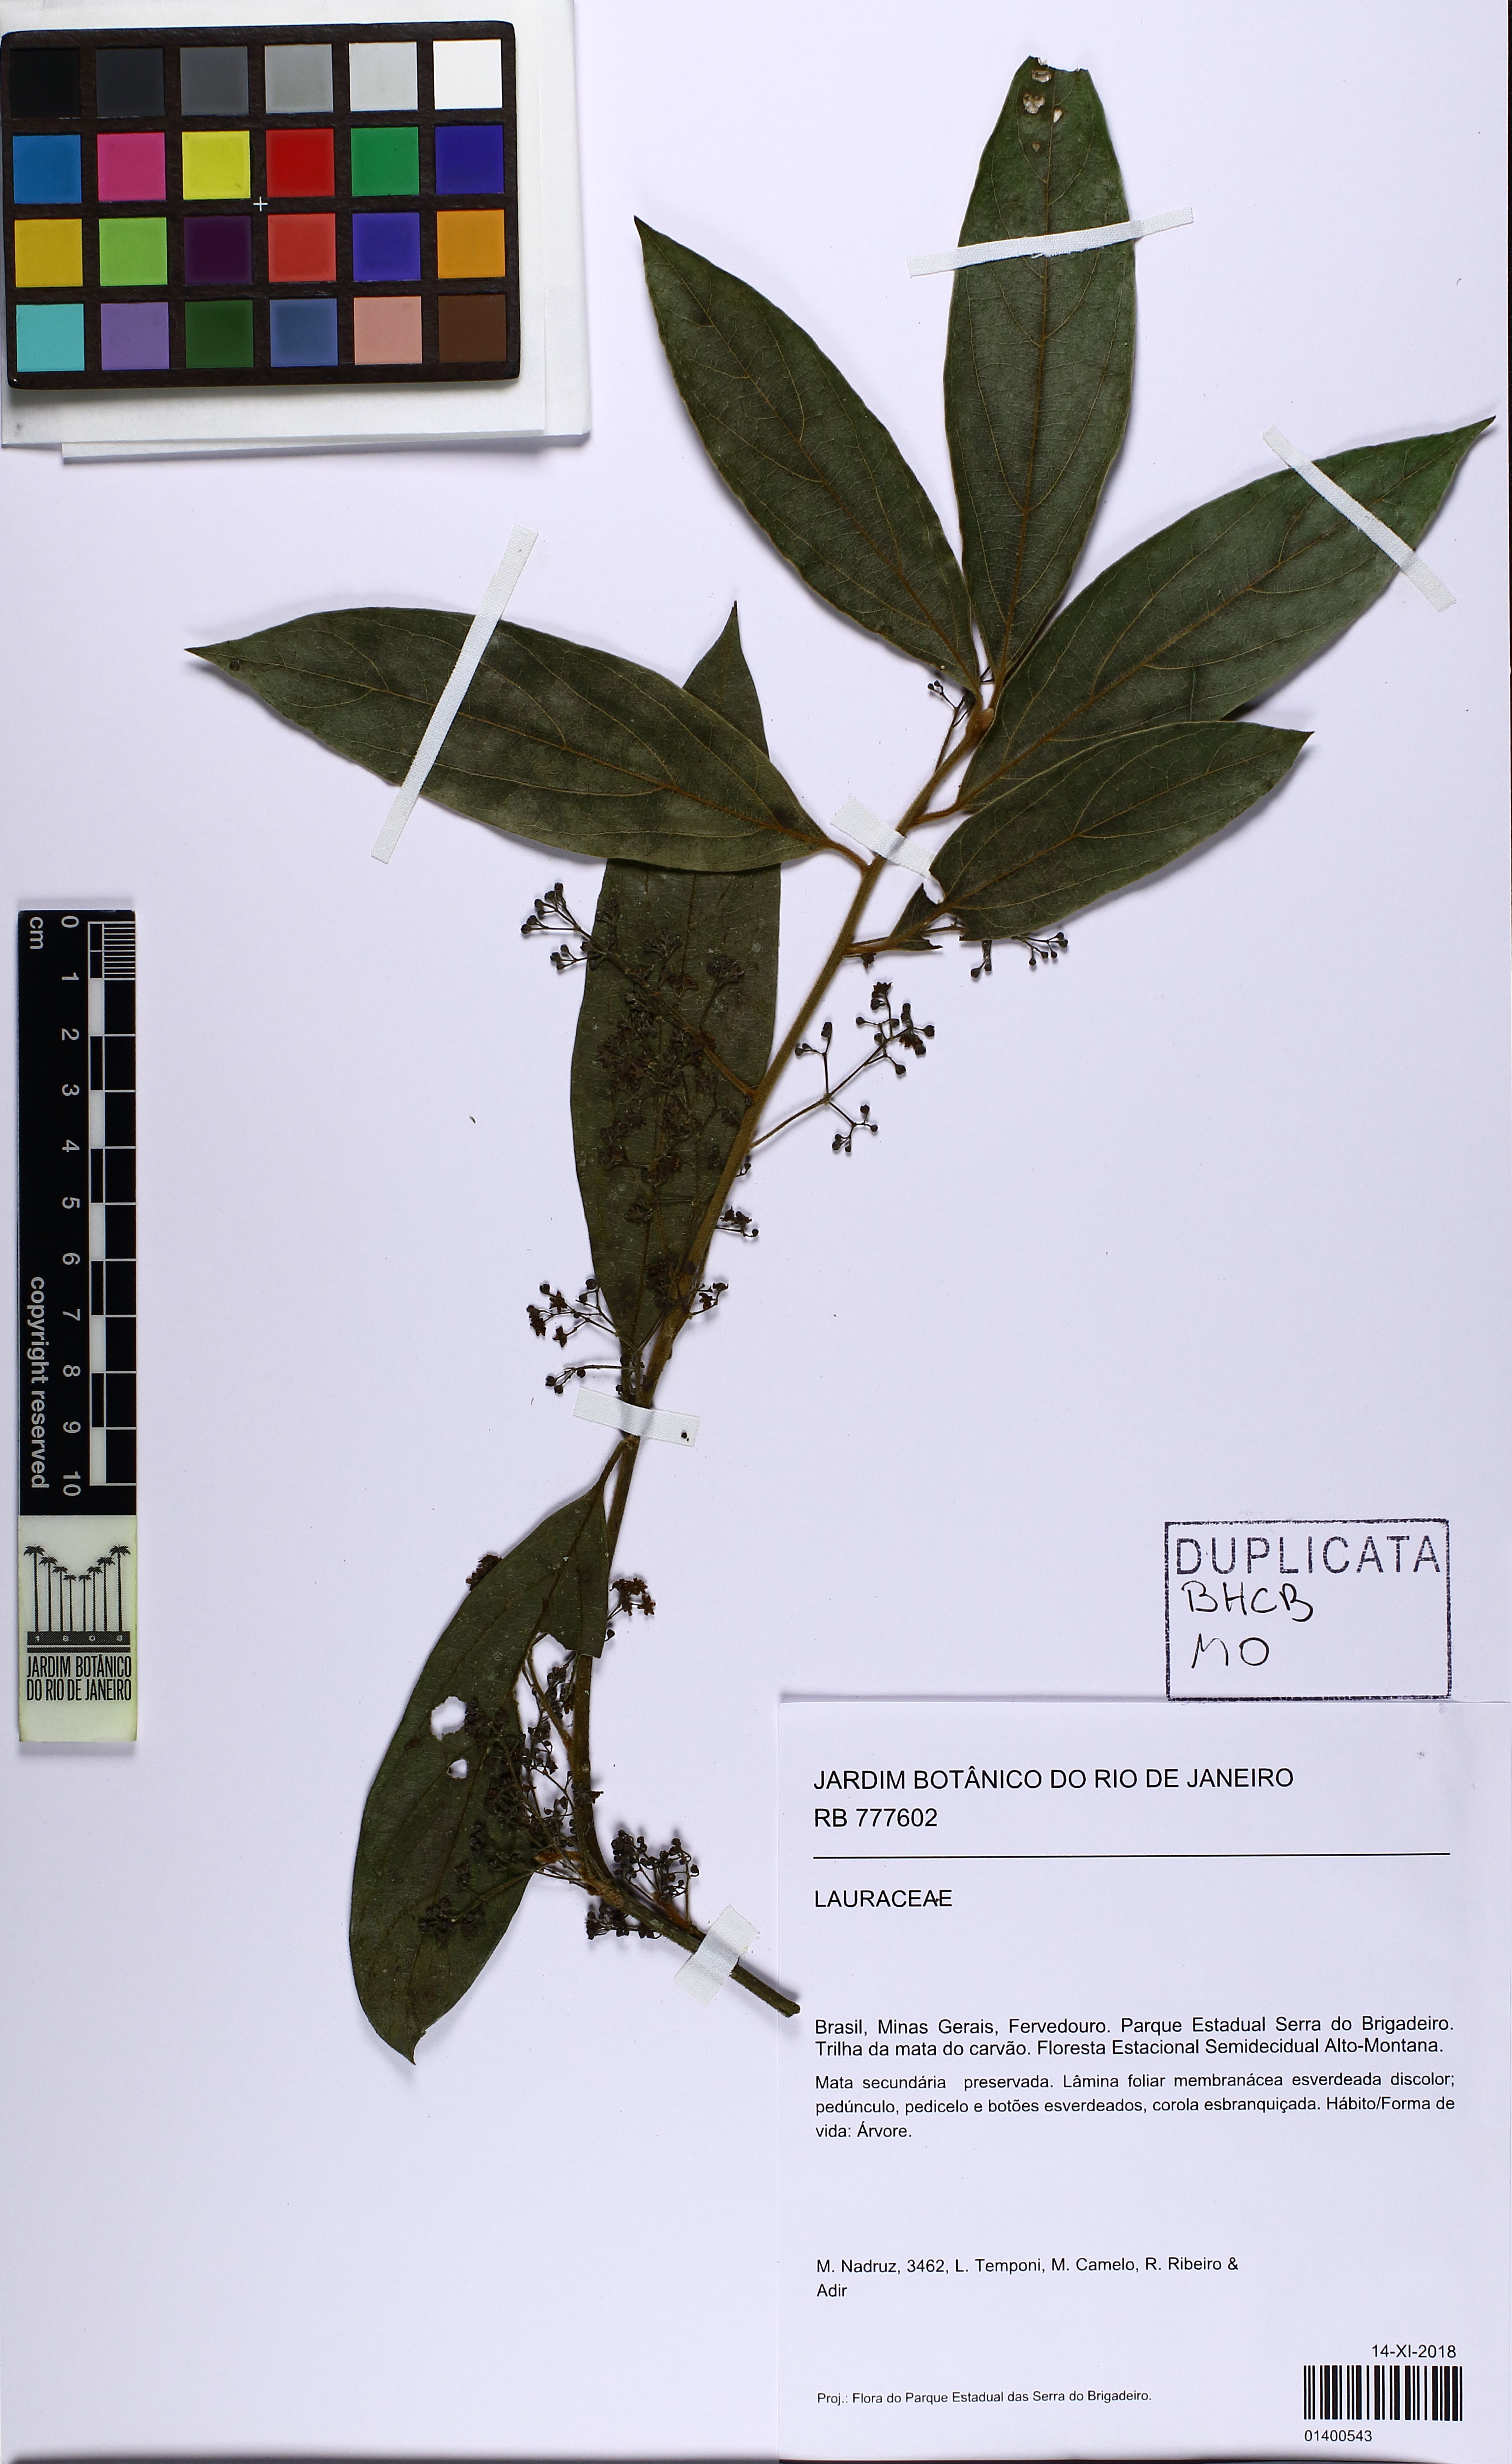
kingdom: Plantae
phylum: Tracheophyta
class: Magnoliopsida
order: Laurales
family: Lauraceae
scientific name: Lauraceae
